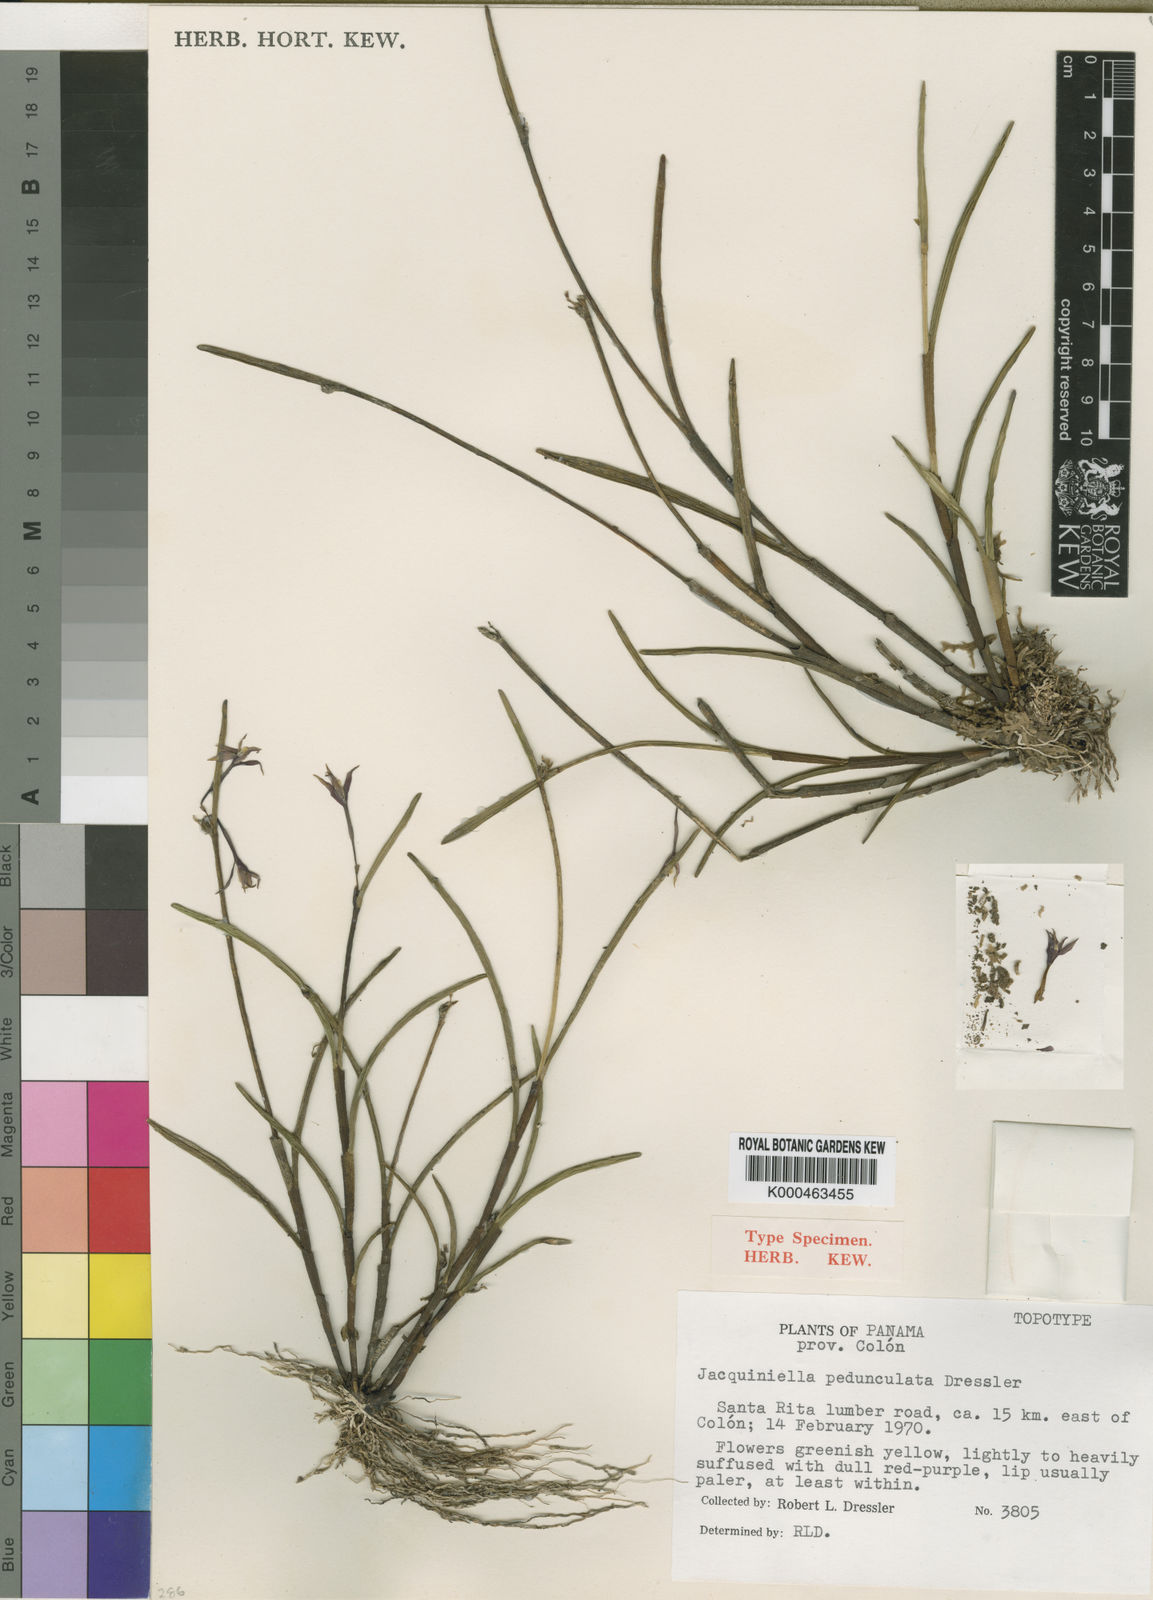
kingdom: Plantae
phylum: Tracheophyta
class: Liliopsida
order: Asparagales
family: Orchidaceae
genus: Jacquiniella
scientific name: Jacquiniella pedunculata
